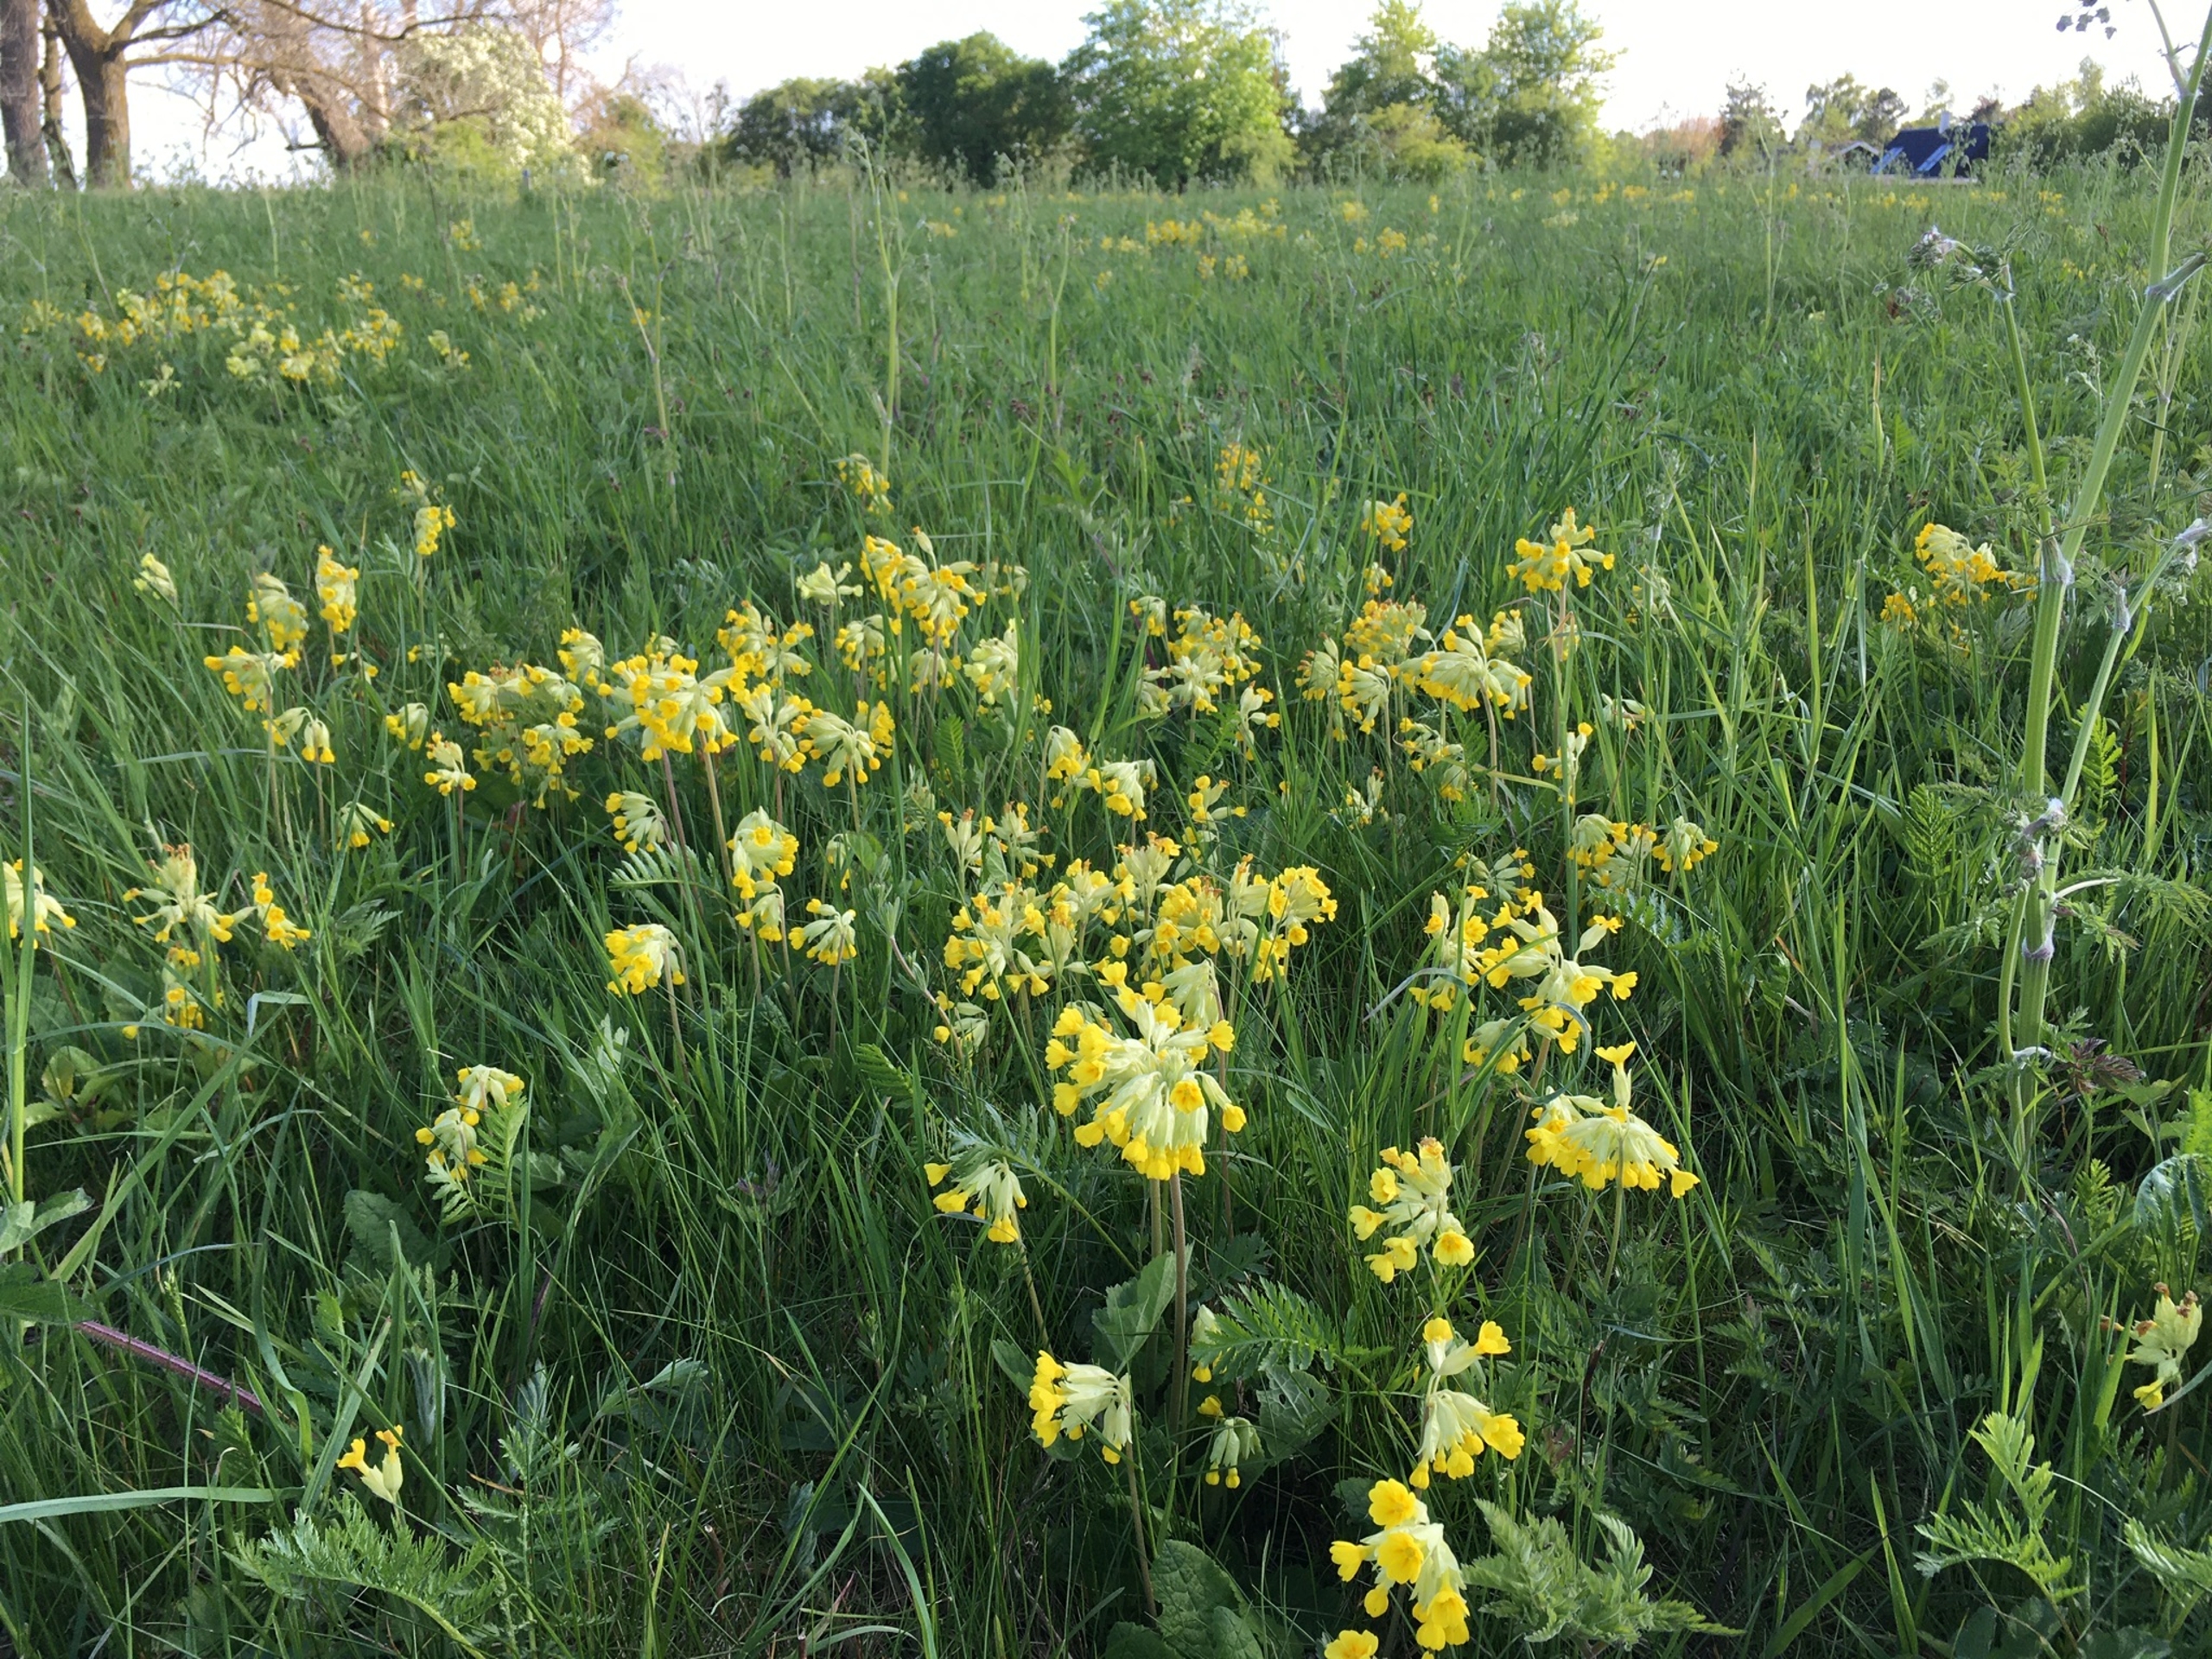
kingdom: Plantae
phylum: Tracheophyta
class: Magnoliopsida
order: Ericales
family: Primulaceae
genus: Primula
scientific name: Primula veris
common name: Hulkravet kodriver
